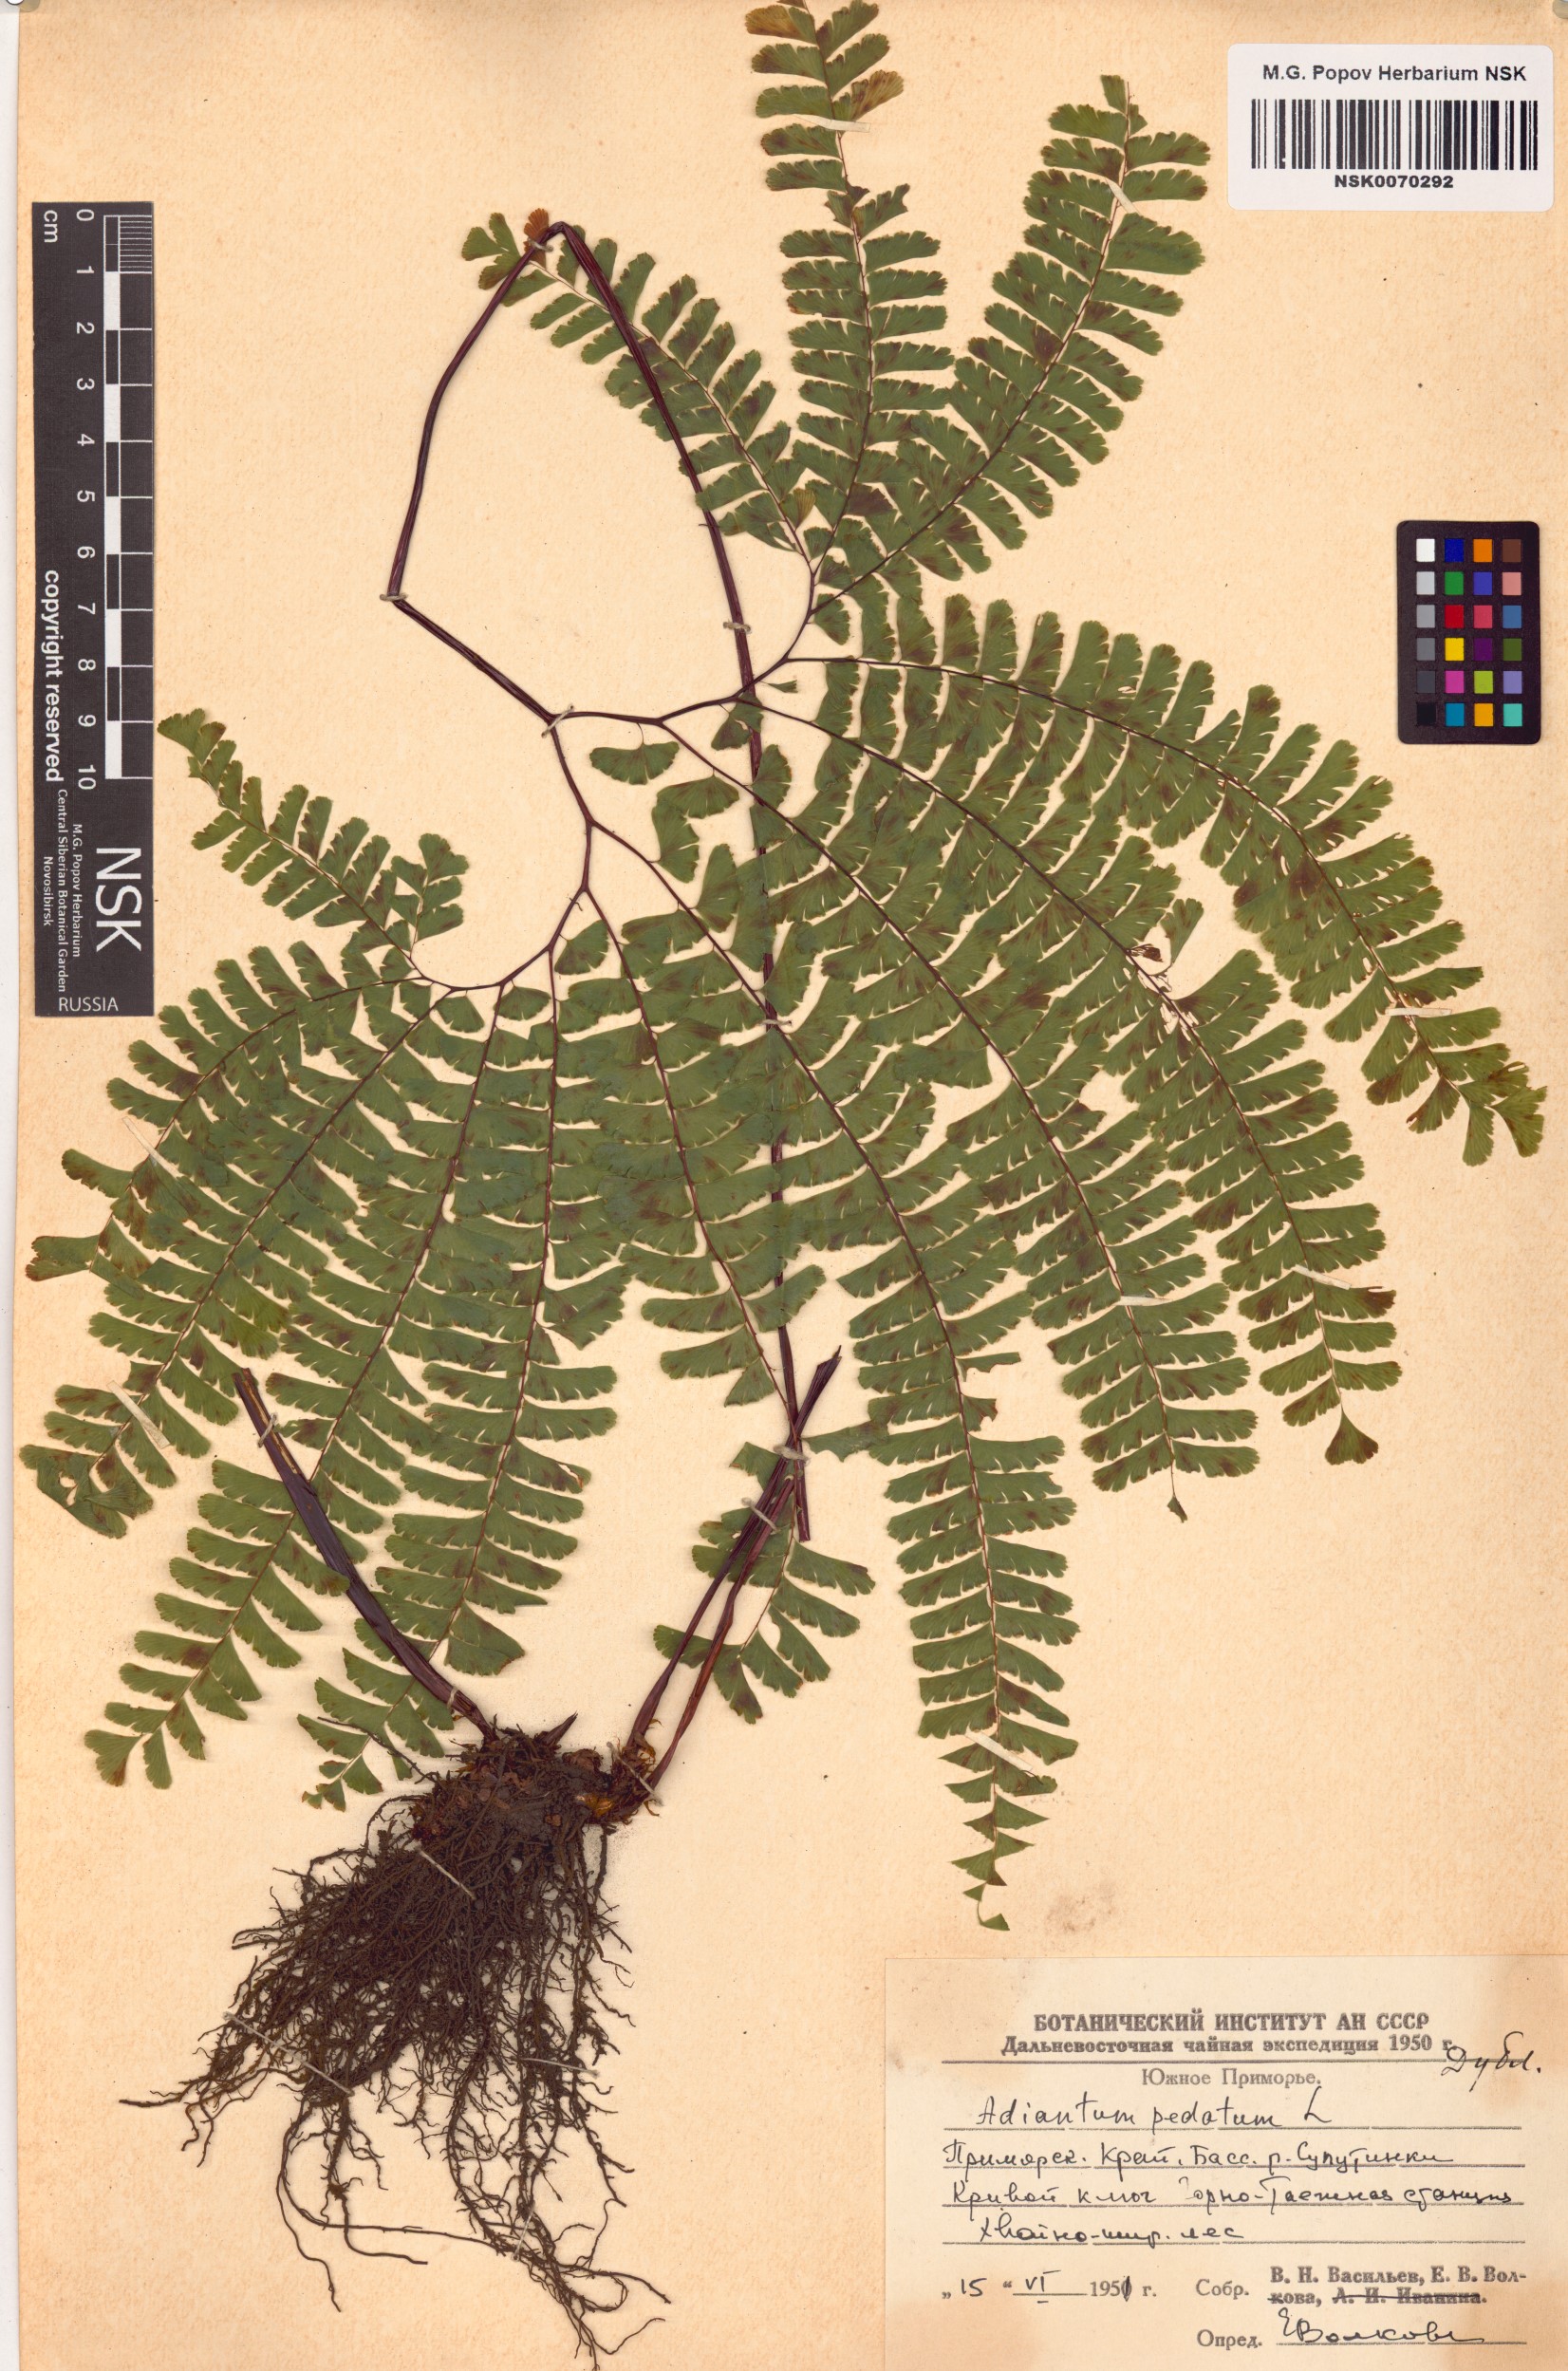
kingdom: Plantae
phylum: Tracheophyta
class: Polypodiopsida
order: Polypodiales
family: Pteridaceae
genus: Adiantum
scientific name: Adiantum pedatum
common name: Five-finger fern
